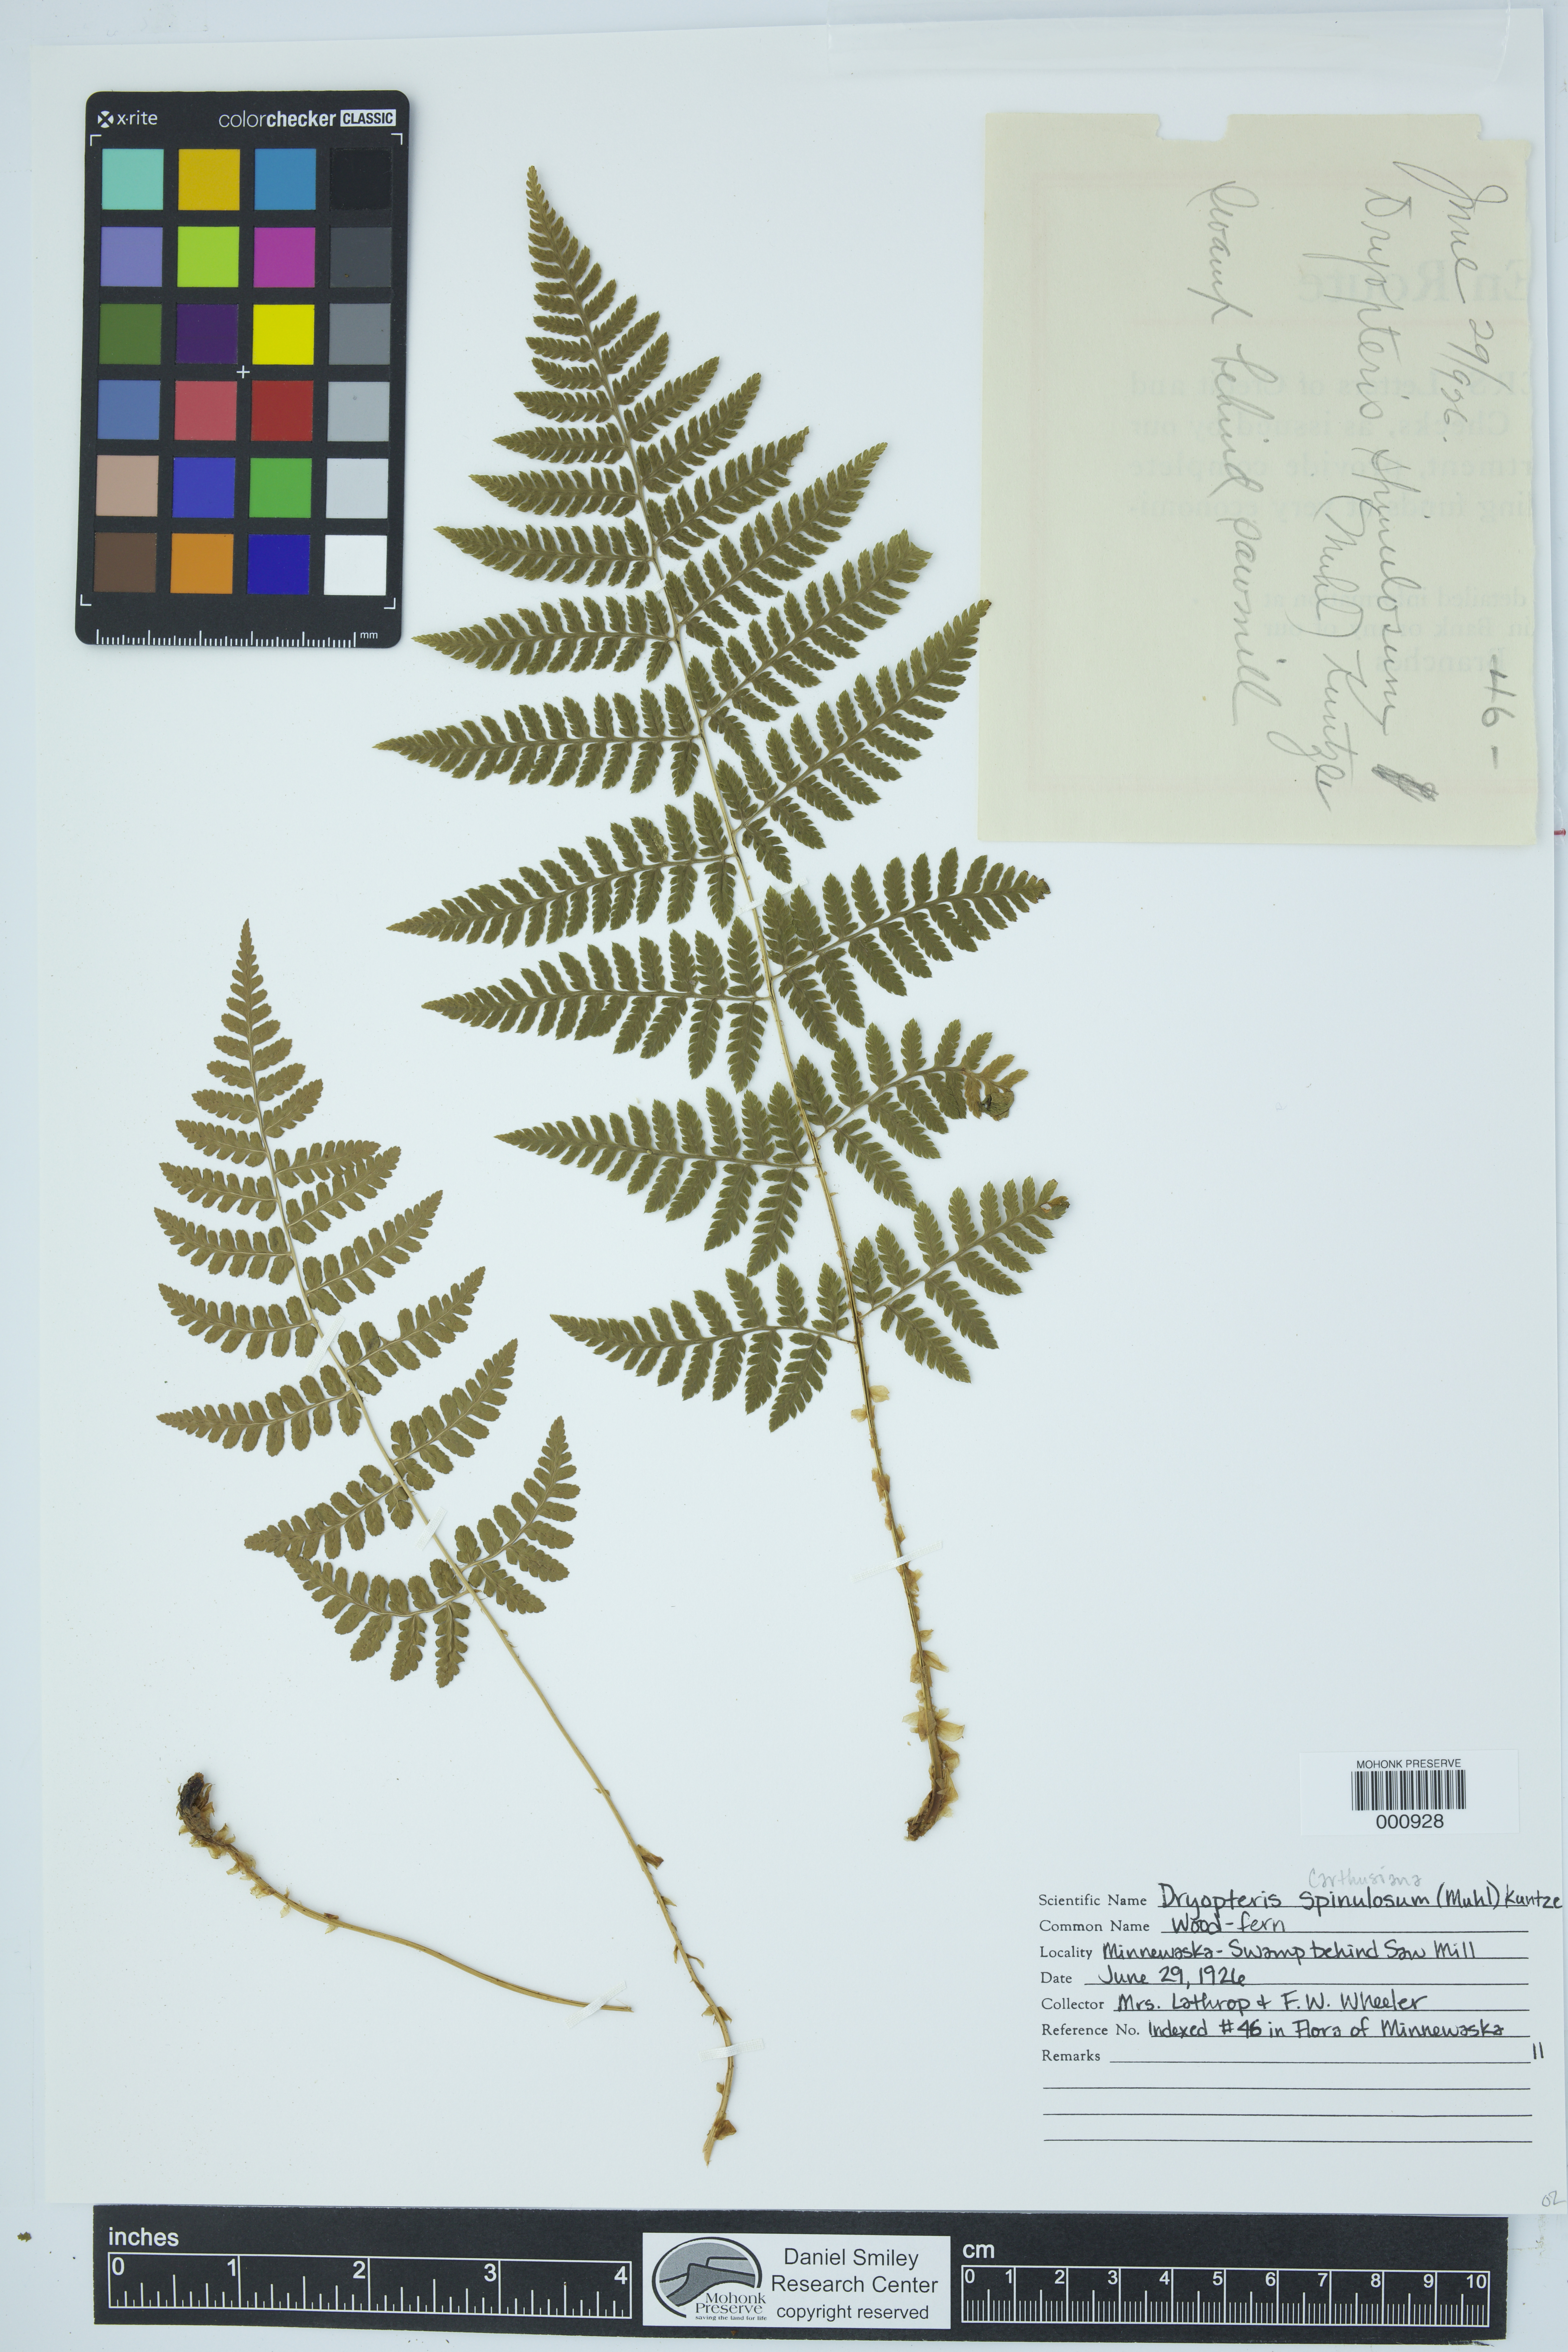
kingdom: Plantae
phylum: Tracheophyta
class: Polypodiopsida
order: Polypodiales
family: Dryopteridaceae
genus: Dryopteris
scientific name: Dryopteris carthusiana
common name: Narrow buckler-fern
